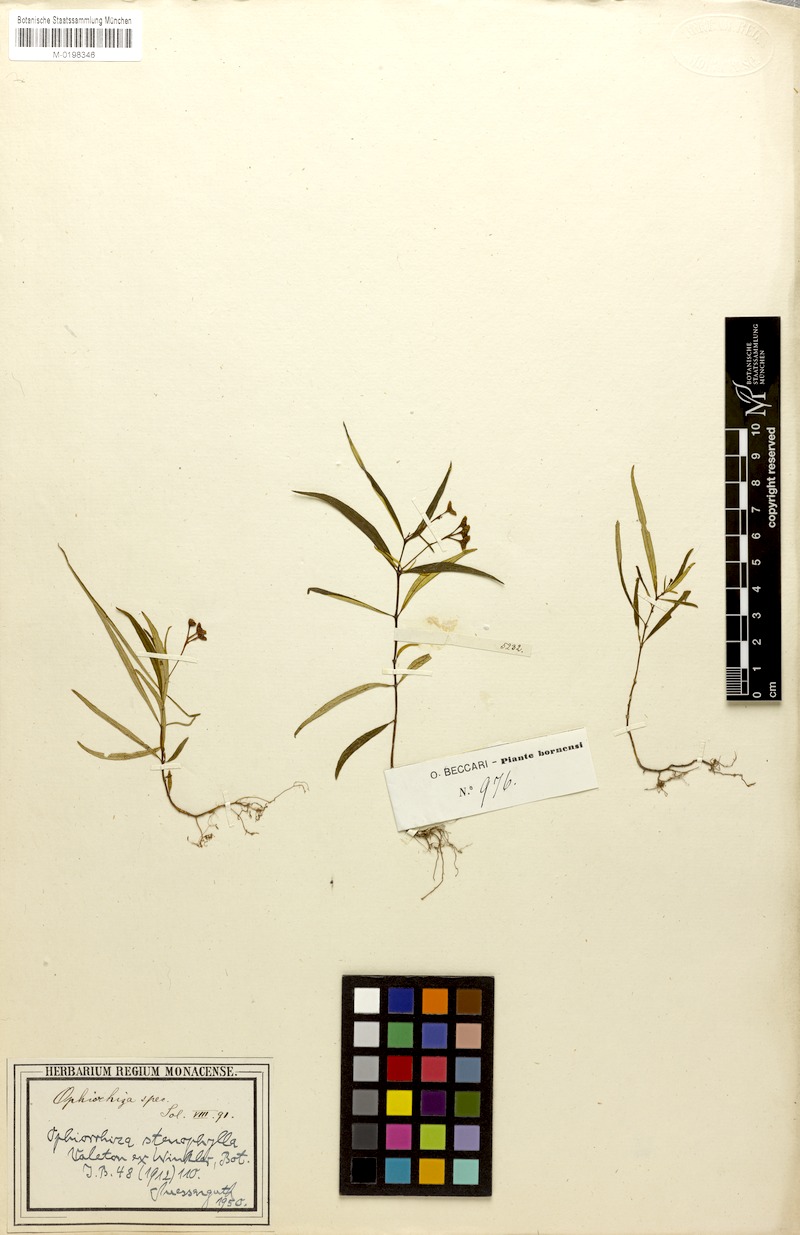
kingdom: Plantae
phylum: Tracheophyta
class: Magnoliopsida
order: Gentianales
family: Rubiaceae
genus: Ophiorrhiza
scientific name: Ophiorrhiza stenophylla
